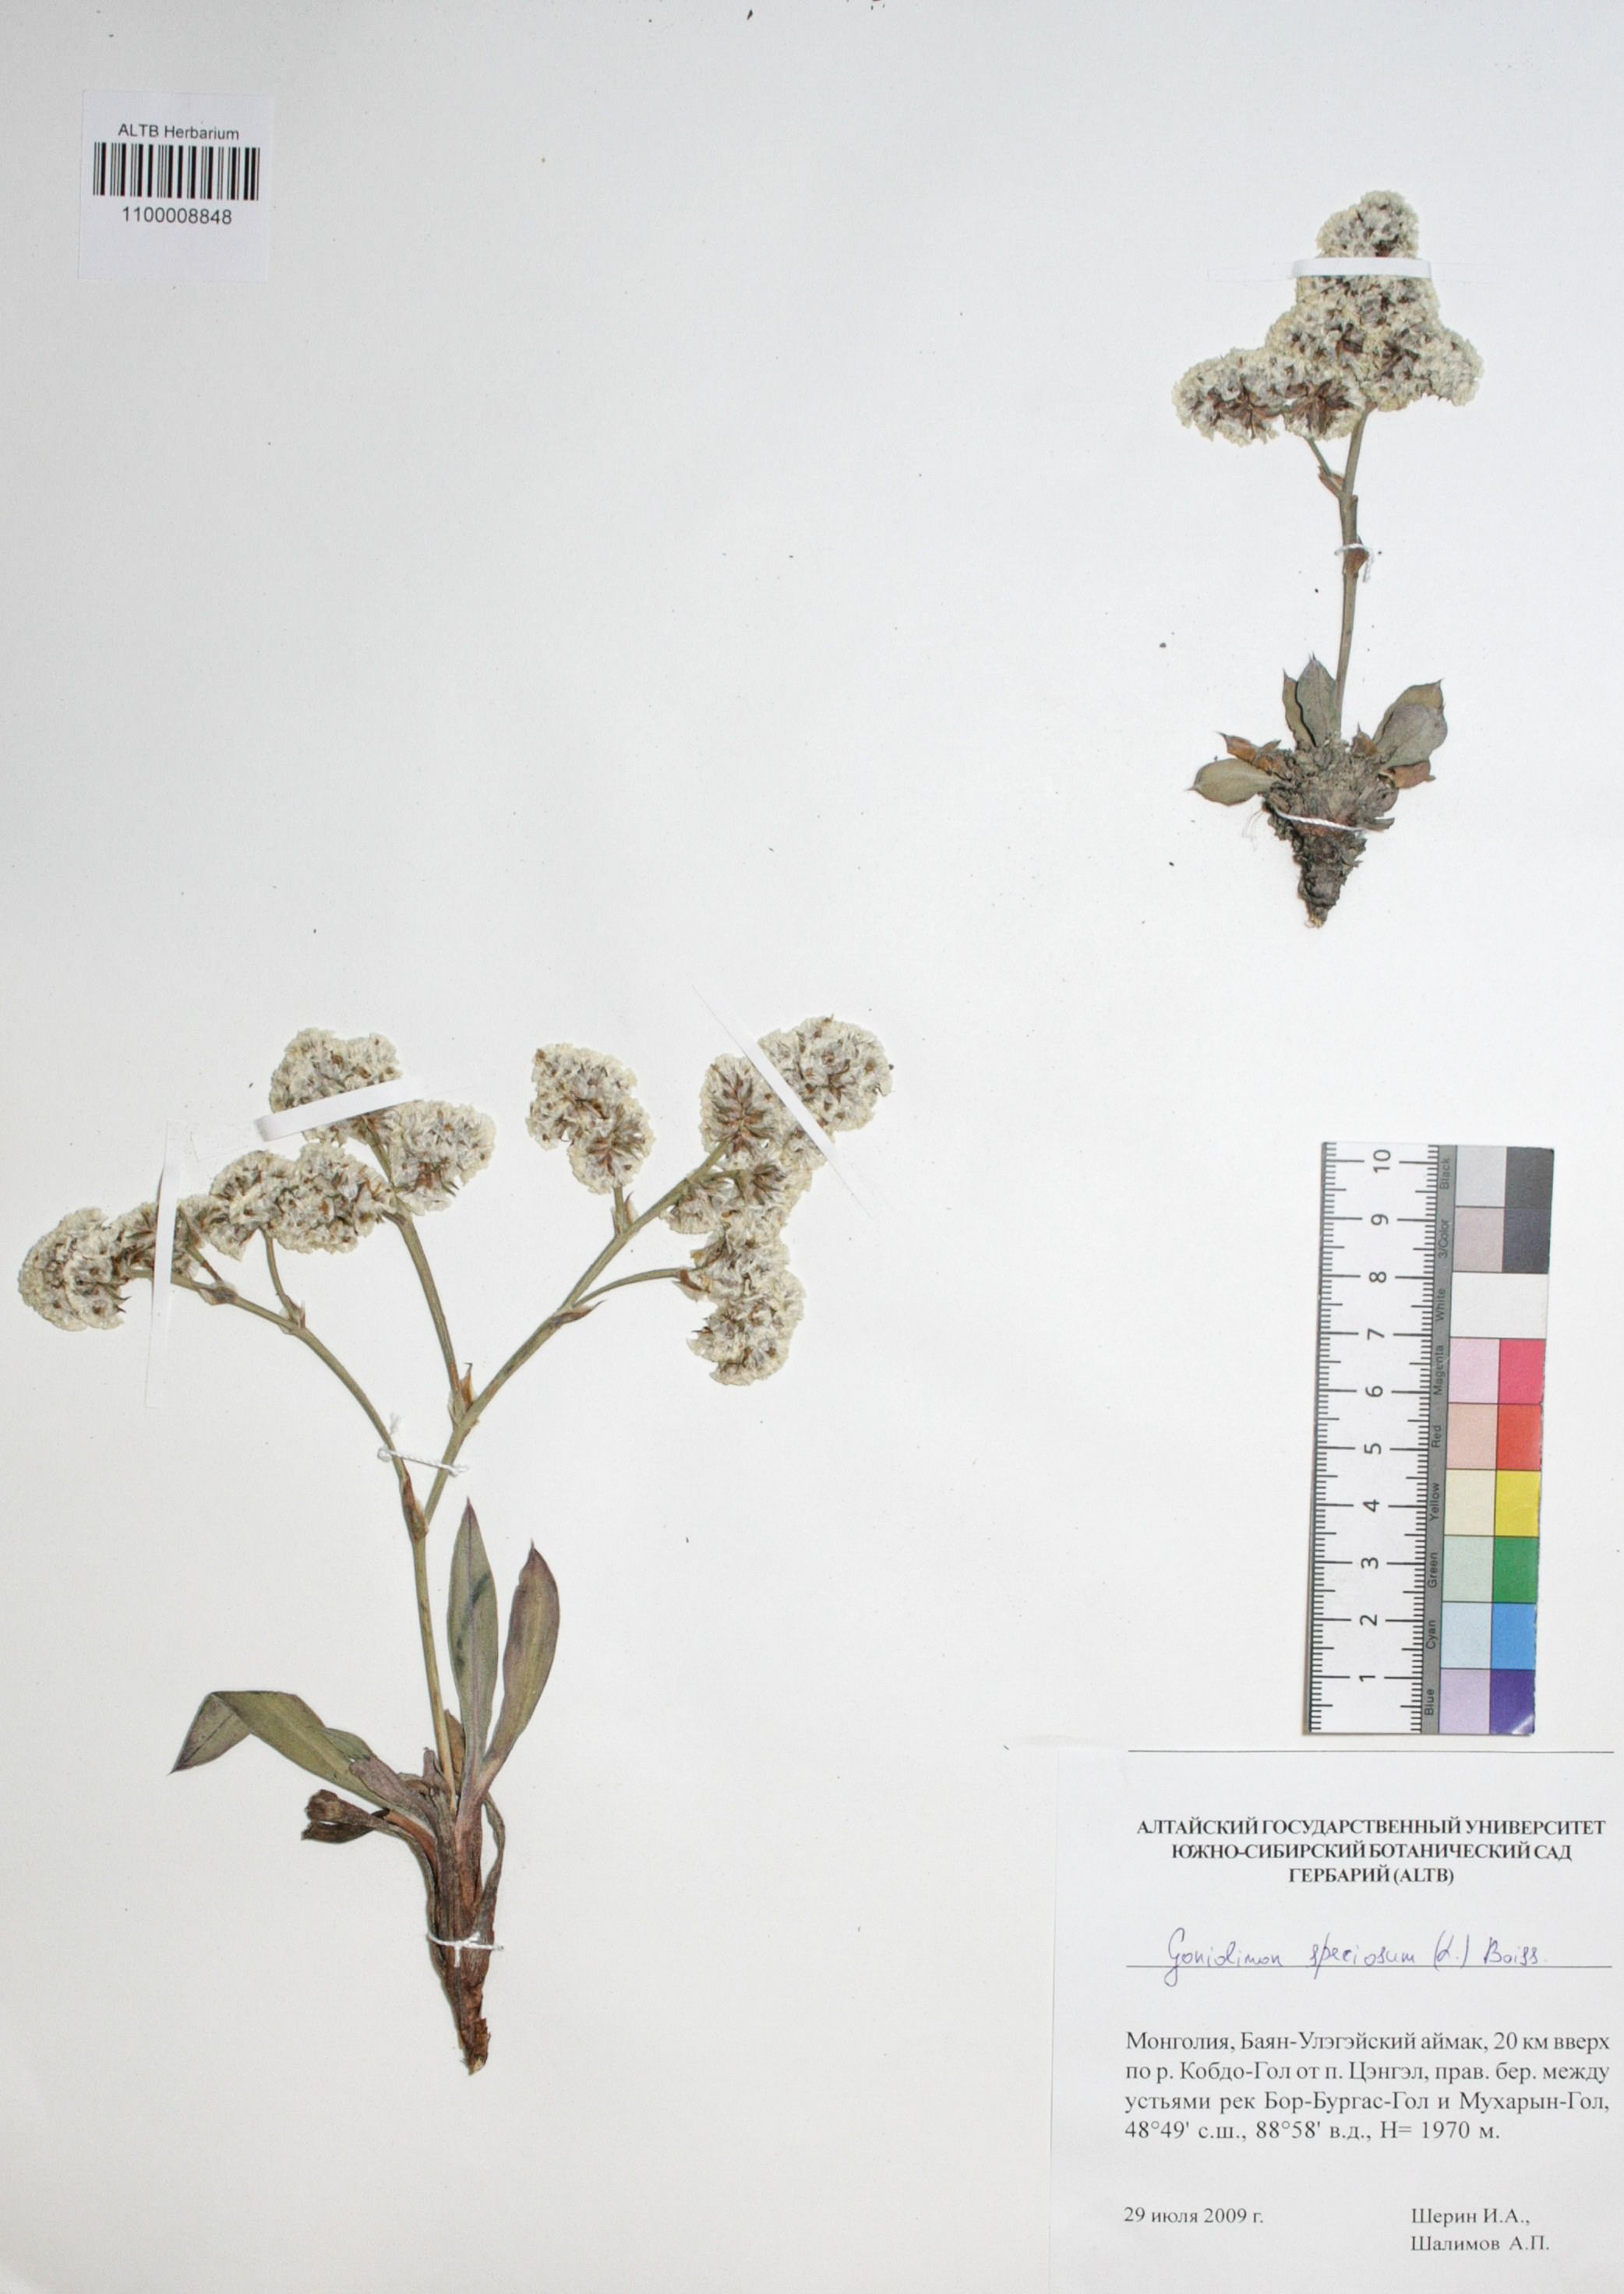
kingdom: Plantae
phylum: Tracheophyta
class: Magnoliopsida
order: Caryophyllales
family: Plumbaginaceae
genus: Goniolimon
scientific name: Goniolimon speciosum
